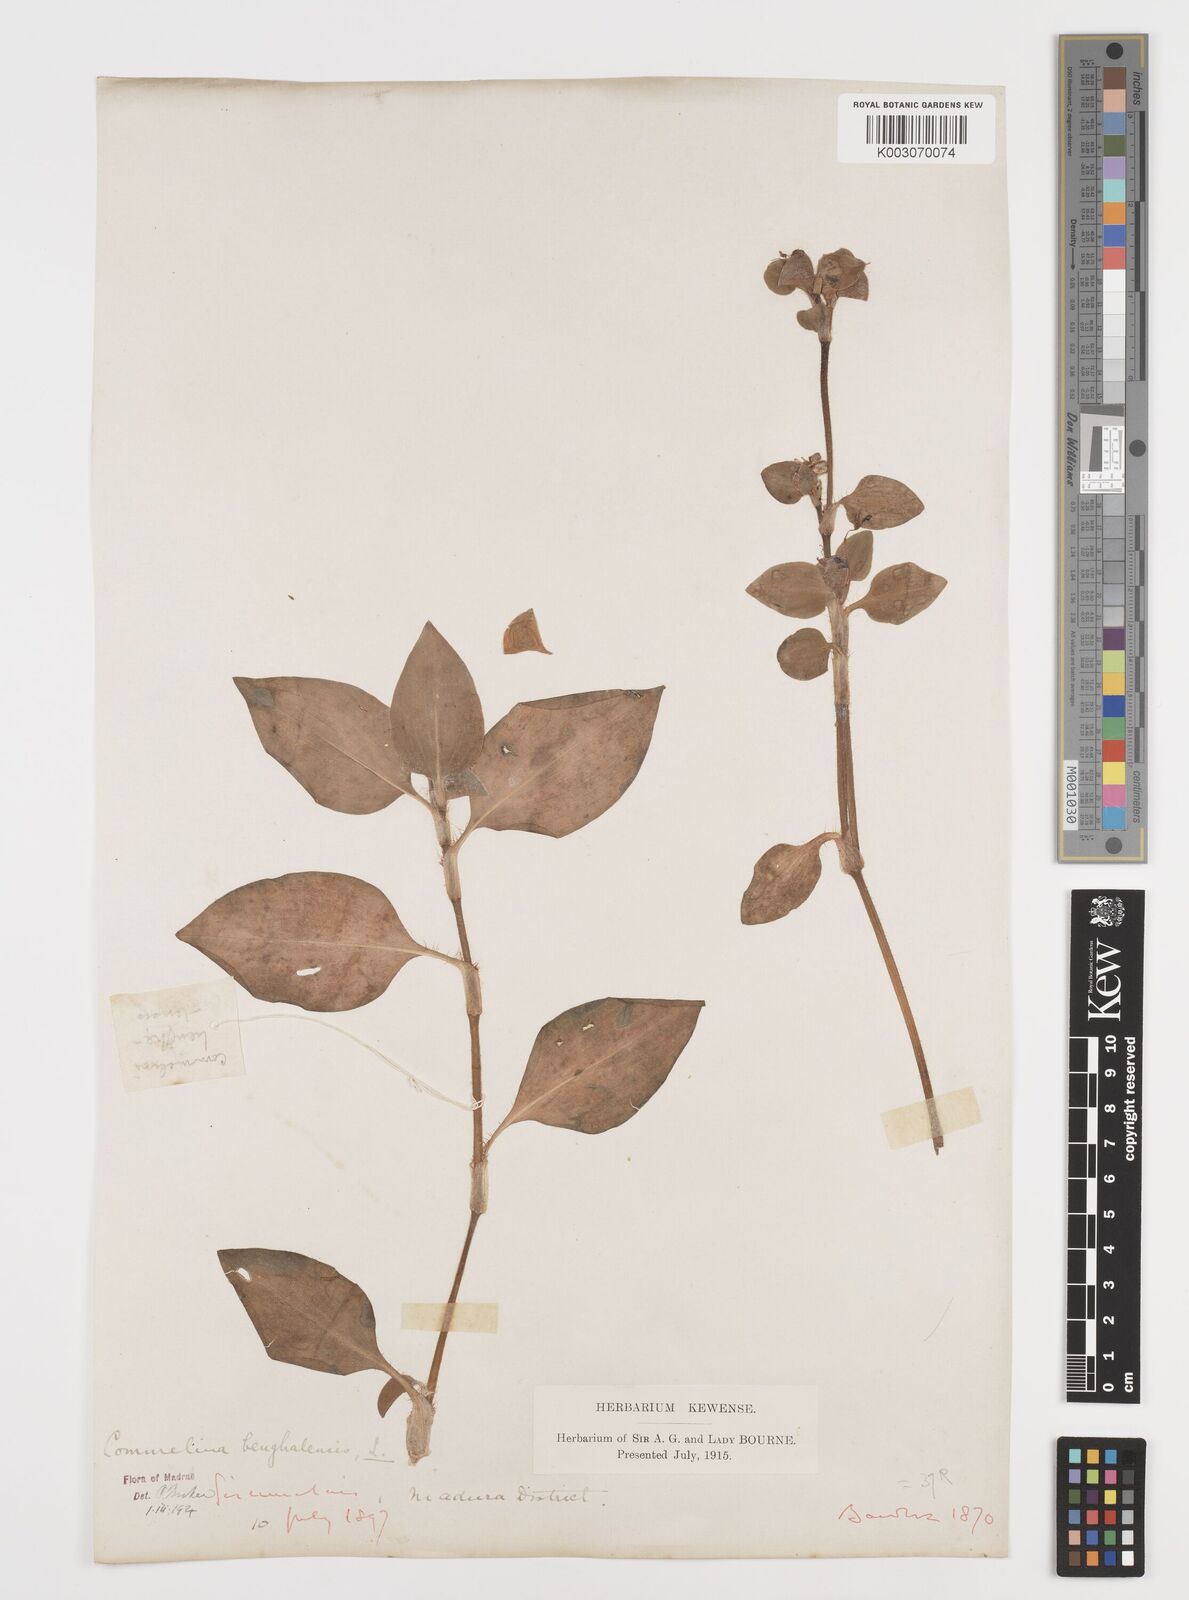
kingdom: Plantae
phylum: Tracheophyta
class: Liliopsida
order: Commelinales
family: Commelinaceae
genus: Commelina
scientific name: Commelina benghalensis
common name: Jio
